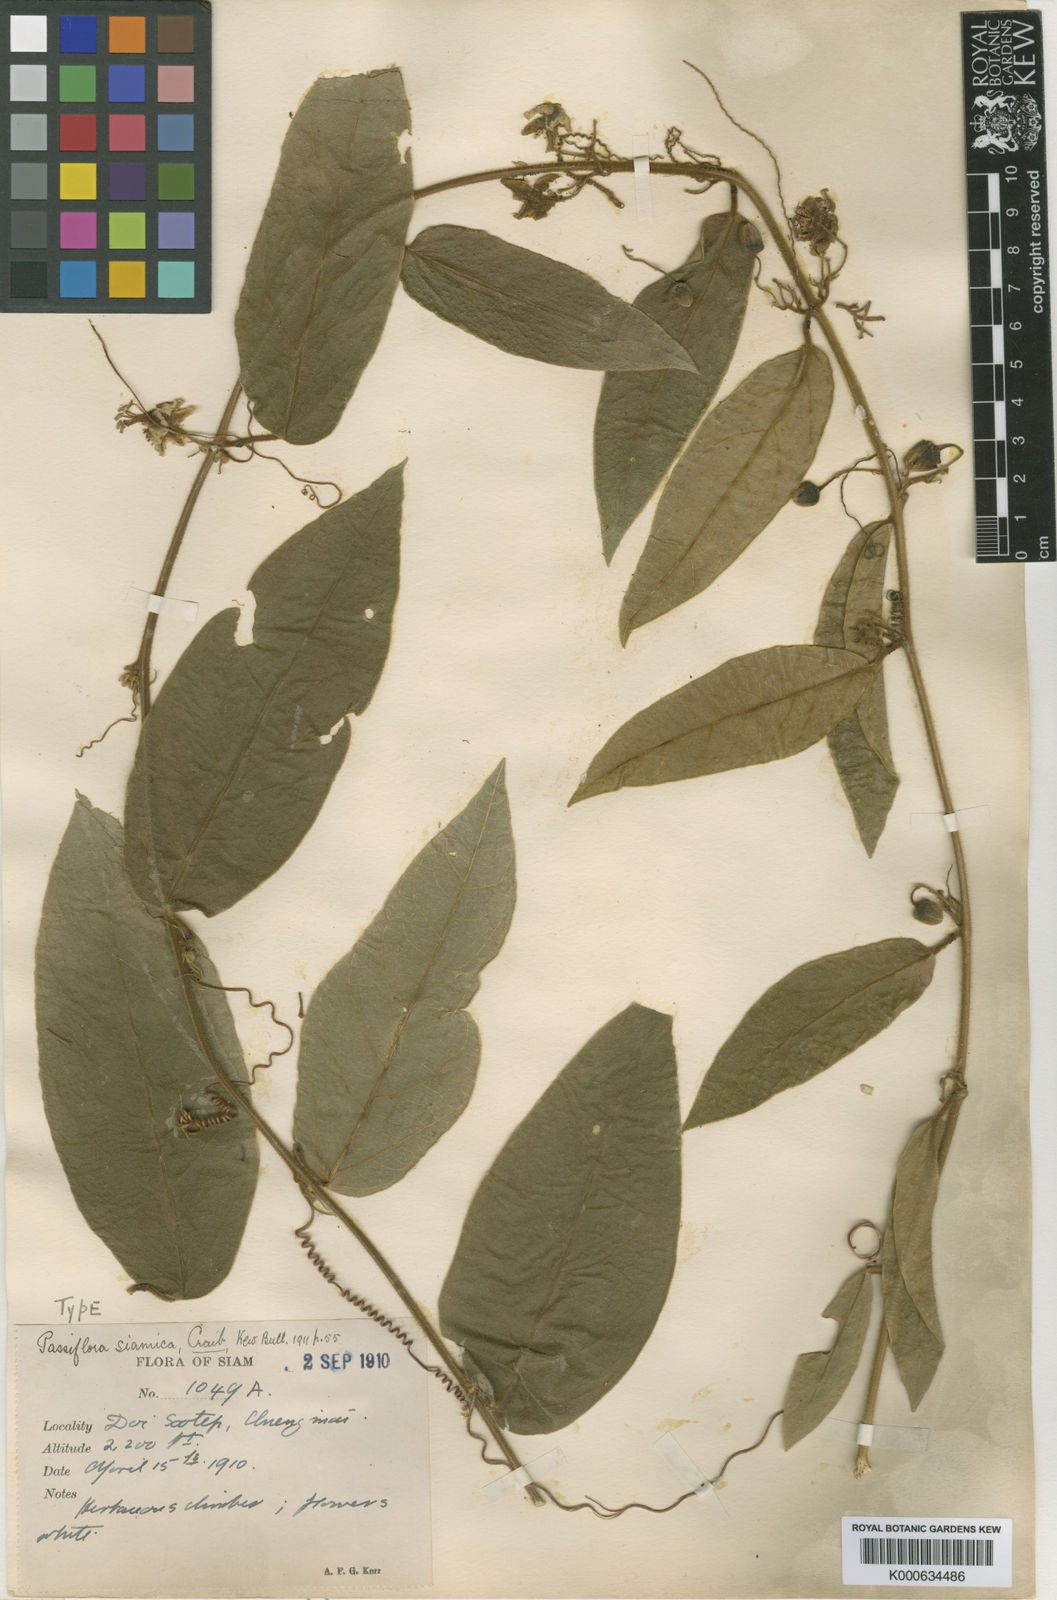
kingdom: Plantae
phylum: Tracheophyta
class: Magnoliopsida
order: Malpighiales
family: Passifloraceae
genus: Passiflora
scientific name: Passiflora siamica
